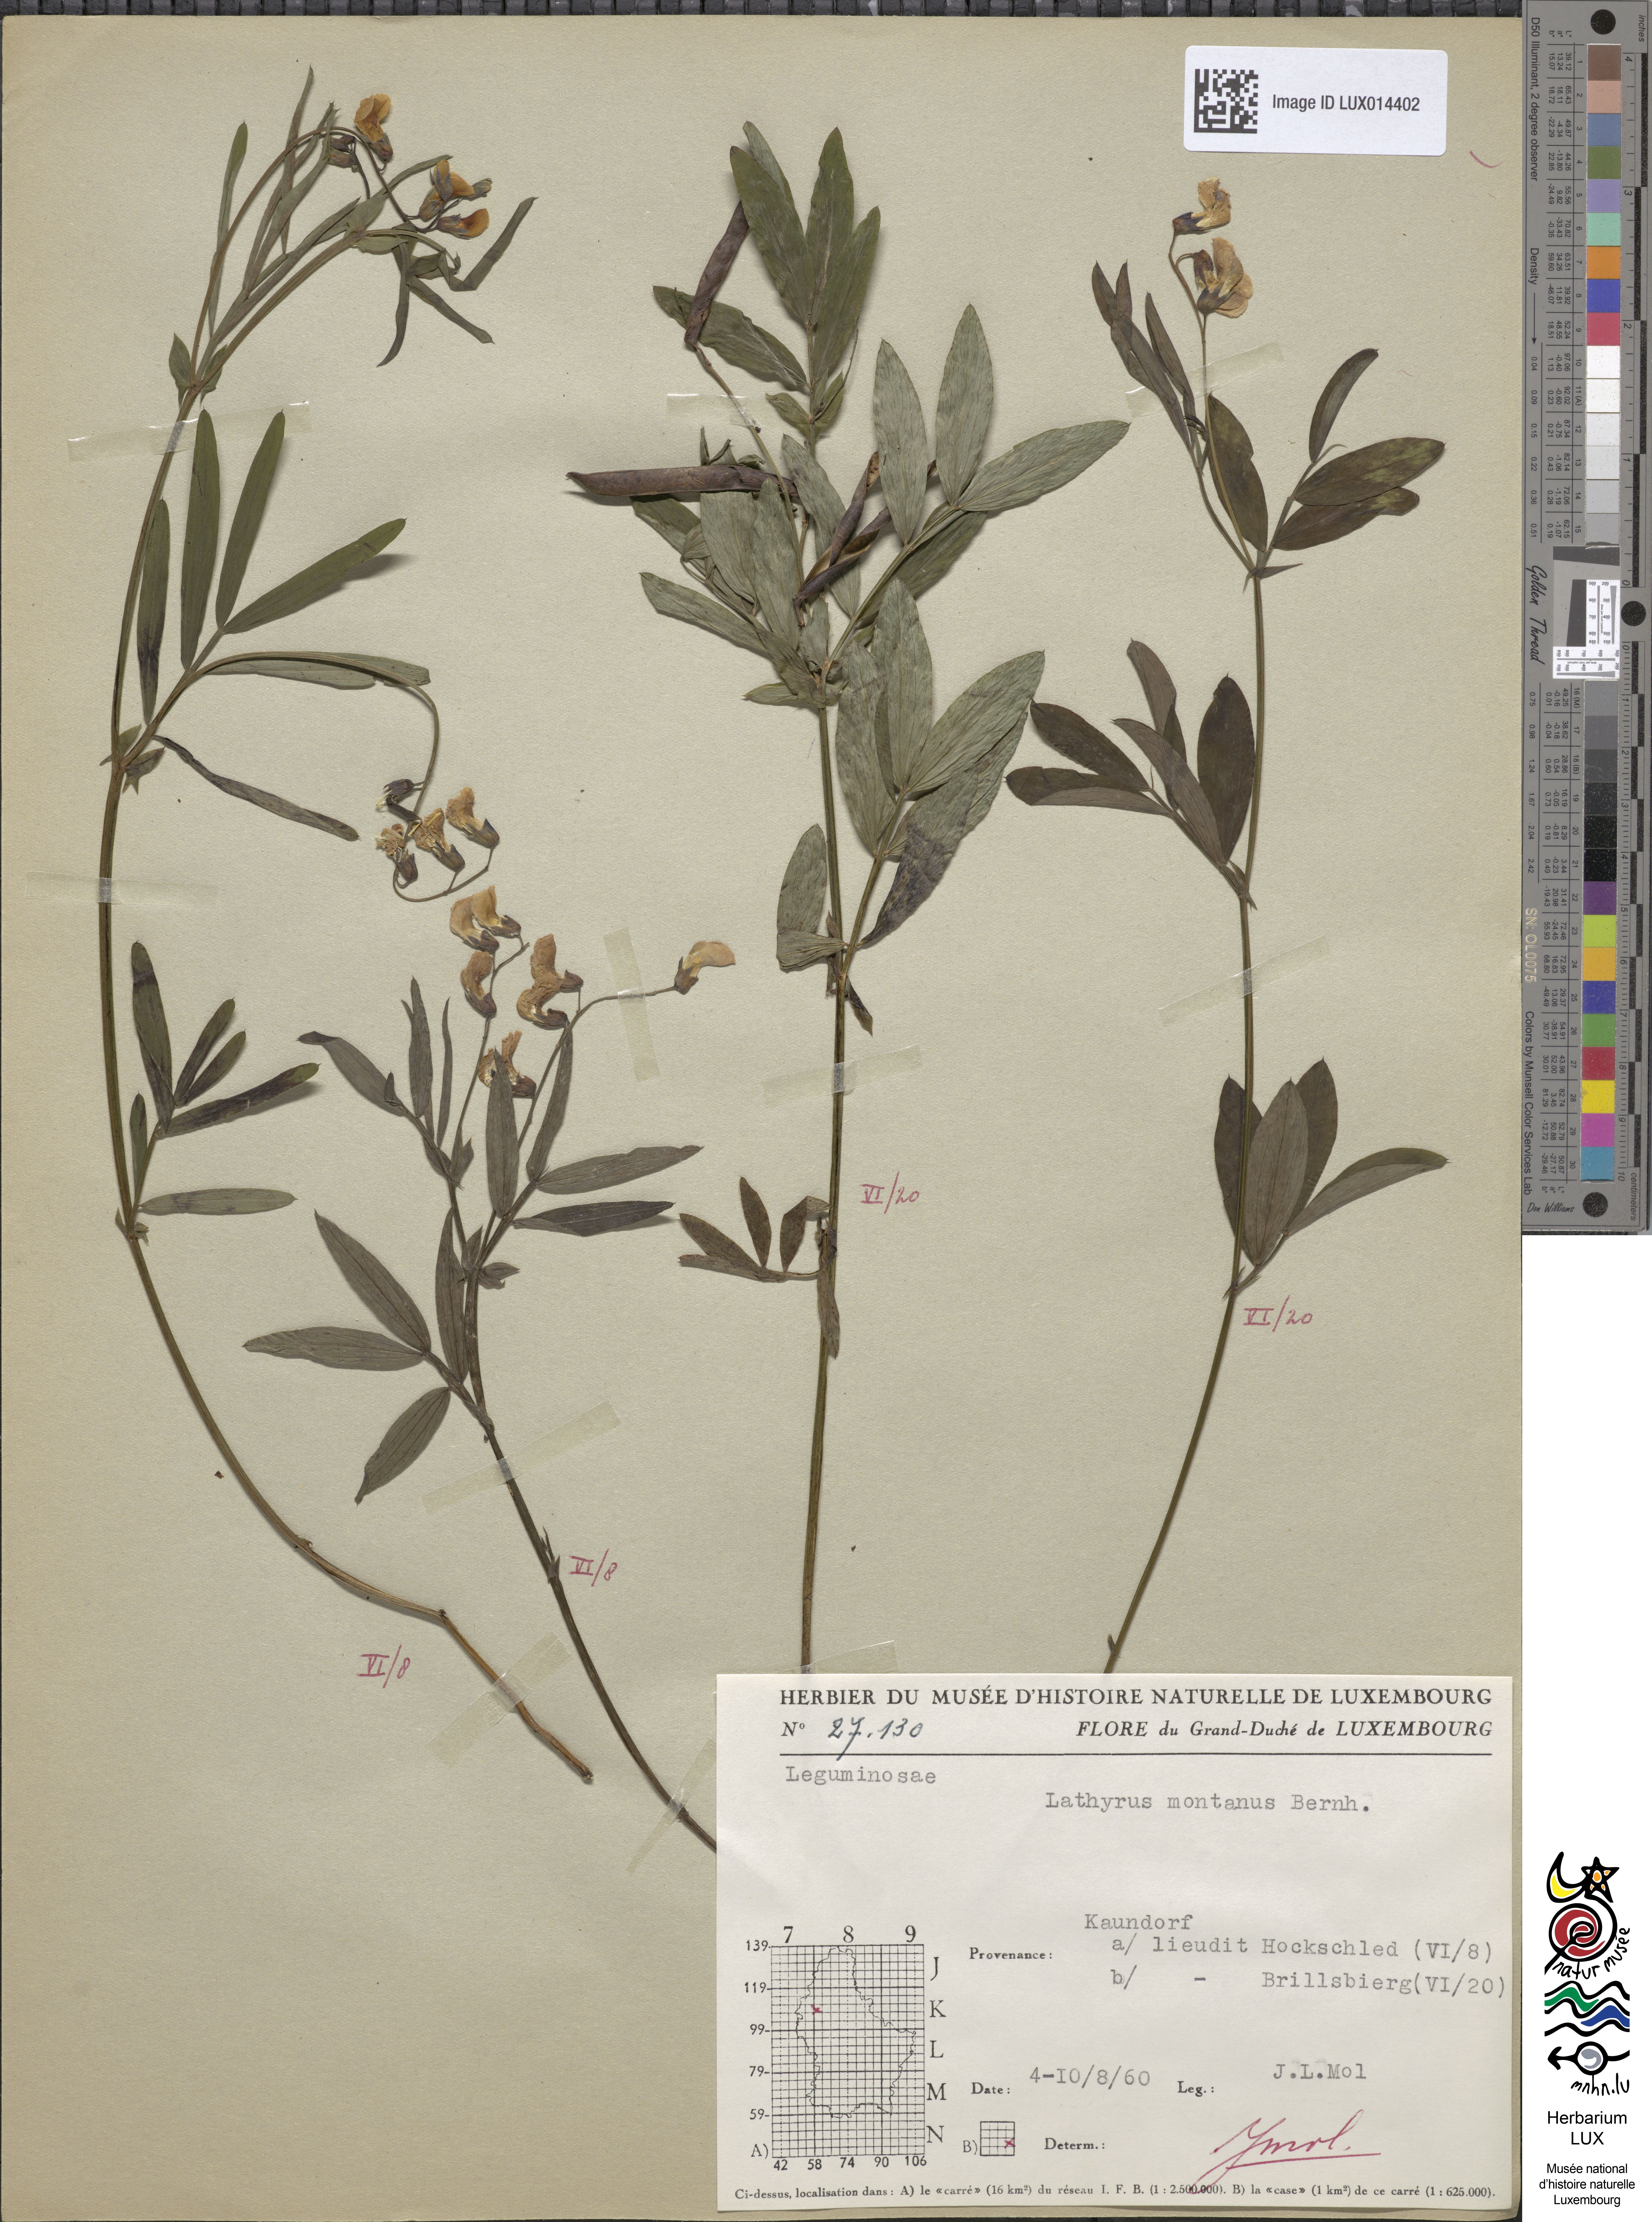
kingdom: Plantae
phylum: Tracheophyta
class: Magnoliopsida
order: Fabales
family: Fabaceae
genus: Lathyrus
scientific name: Lathyrus linifolius
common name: Bitter-vetch
